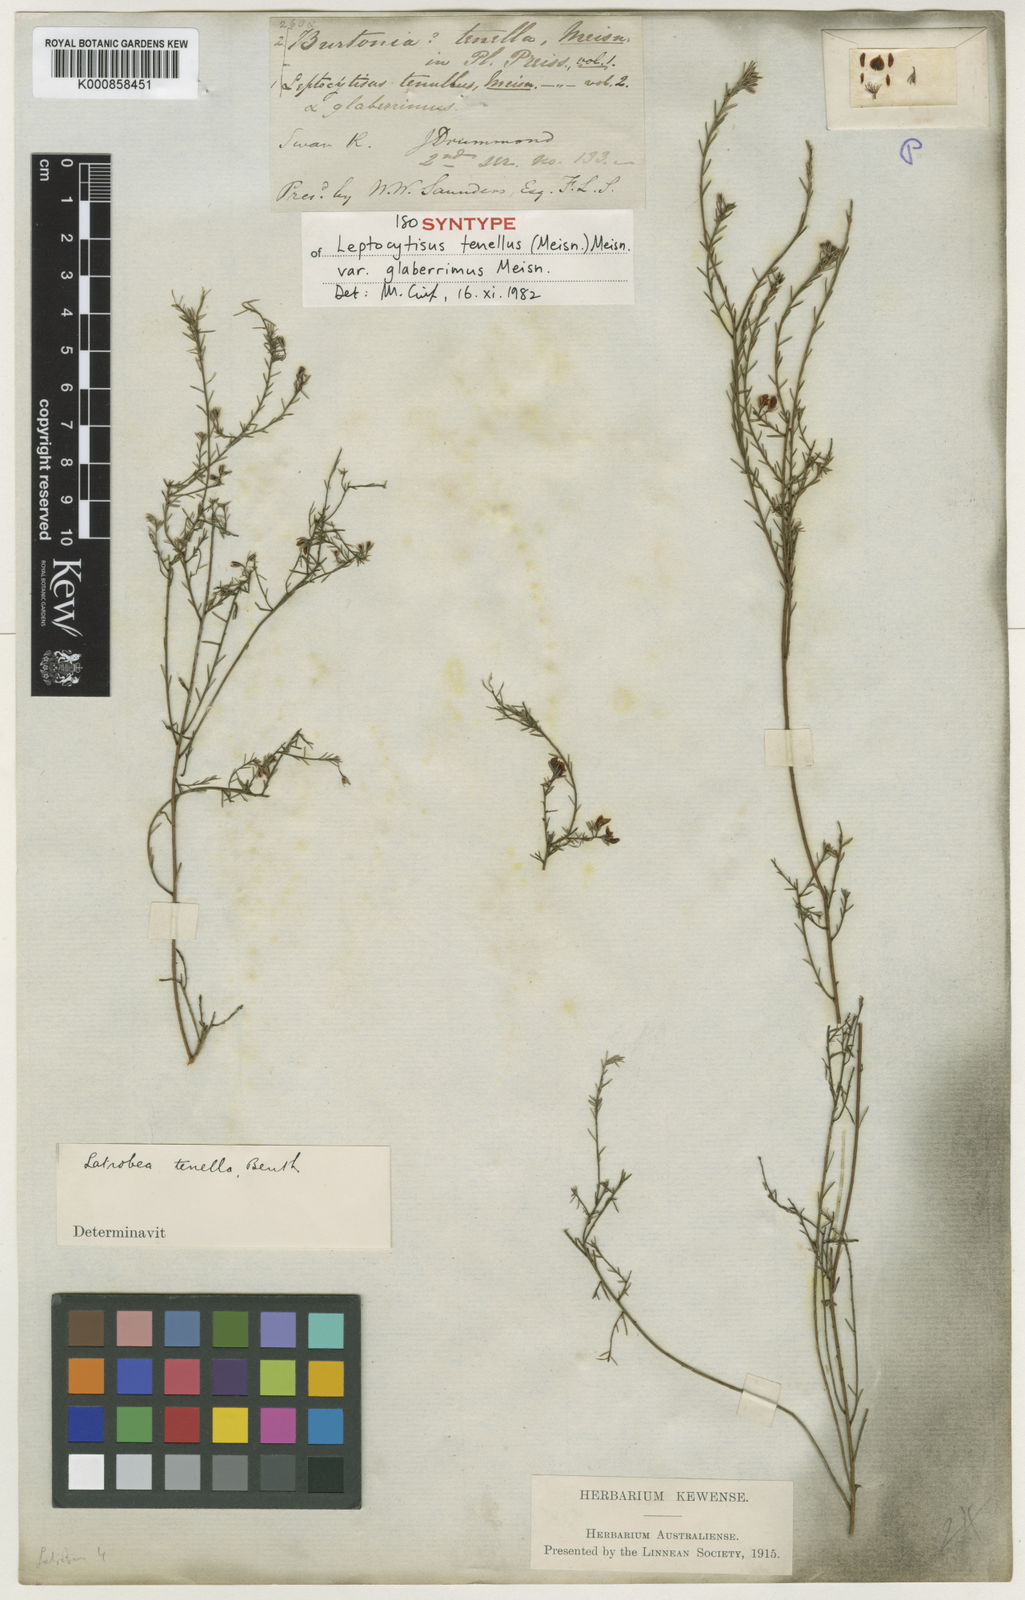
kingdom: Plantae
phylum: Tracheophyta
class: Magnoliopsida
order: Fabales
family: Fabaceae
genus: Latrobea
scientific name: Latrobea tenella
